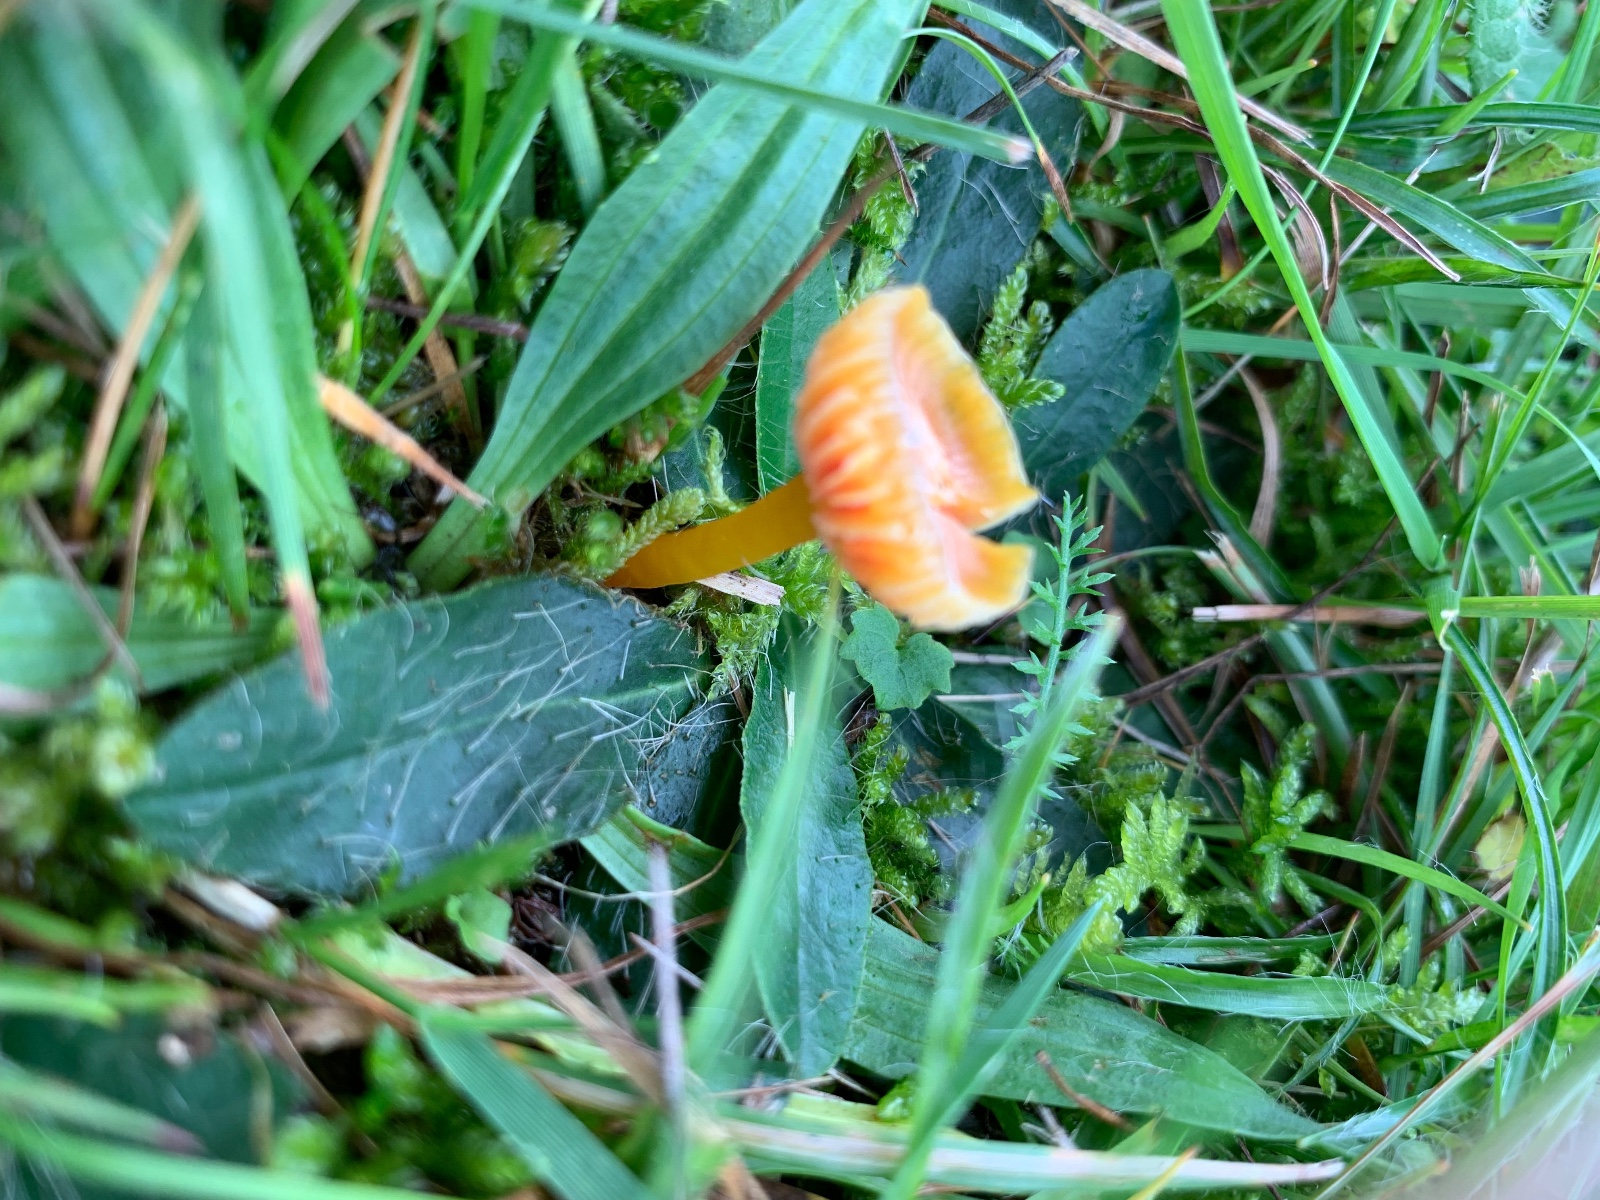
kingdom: Fungi
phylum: Basidiomycota
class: Agaricomycetes
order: Agaricales
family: Hygrophoraceae
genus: Hygrocybe
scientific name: Hygrocybe insipida
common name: liden vokshat
